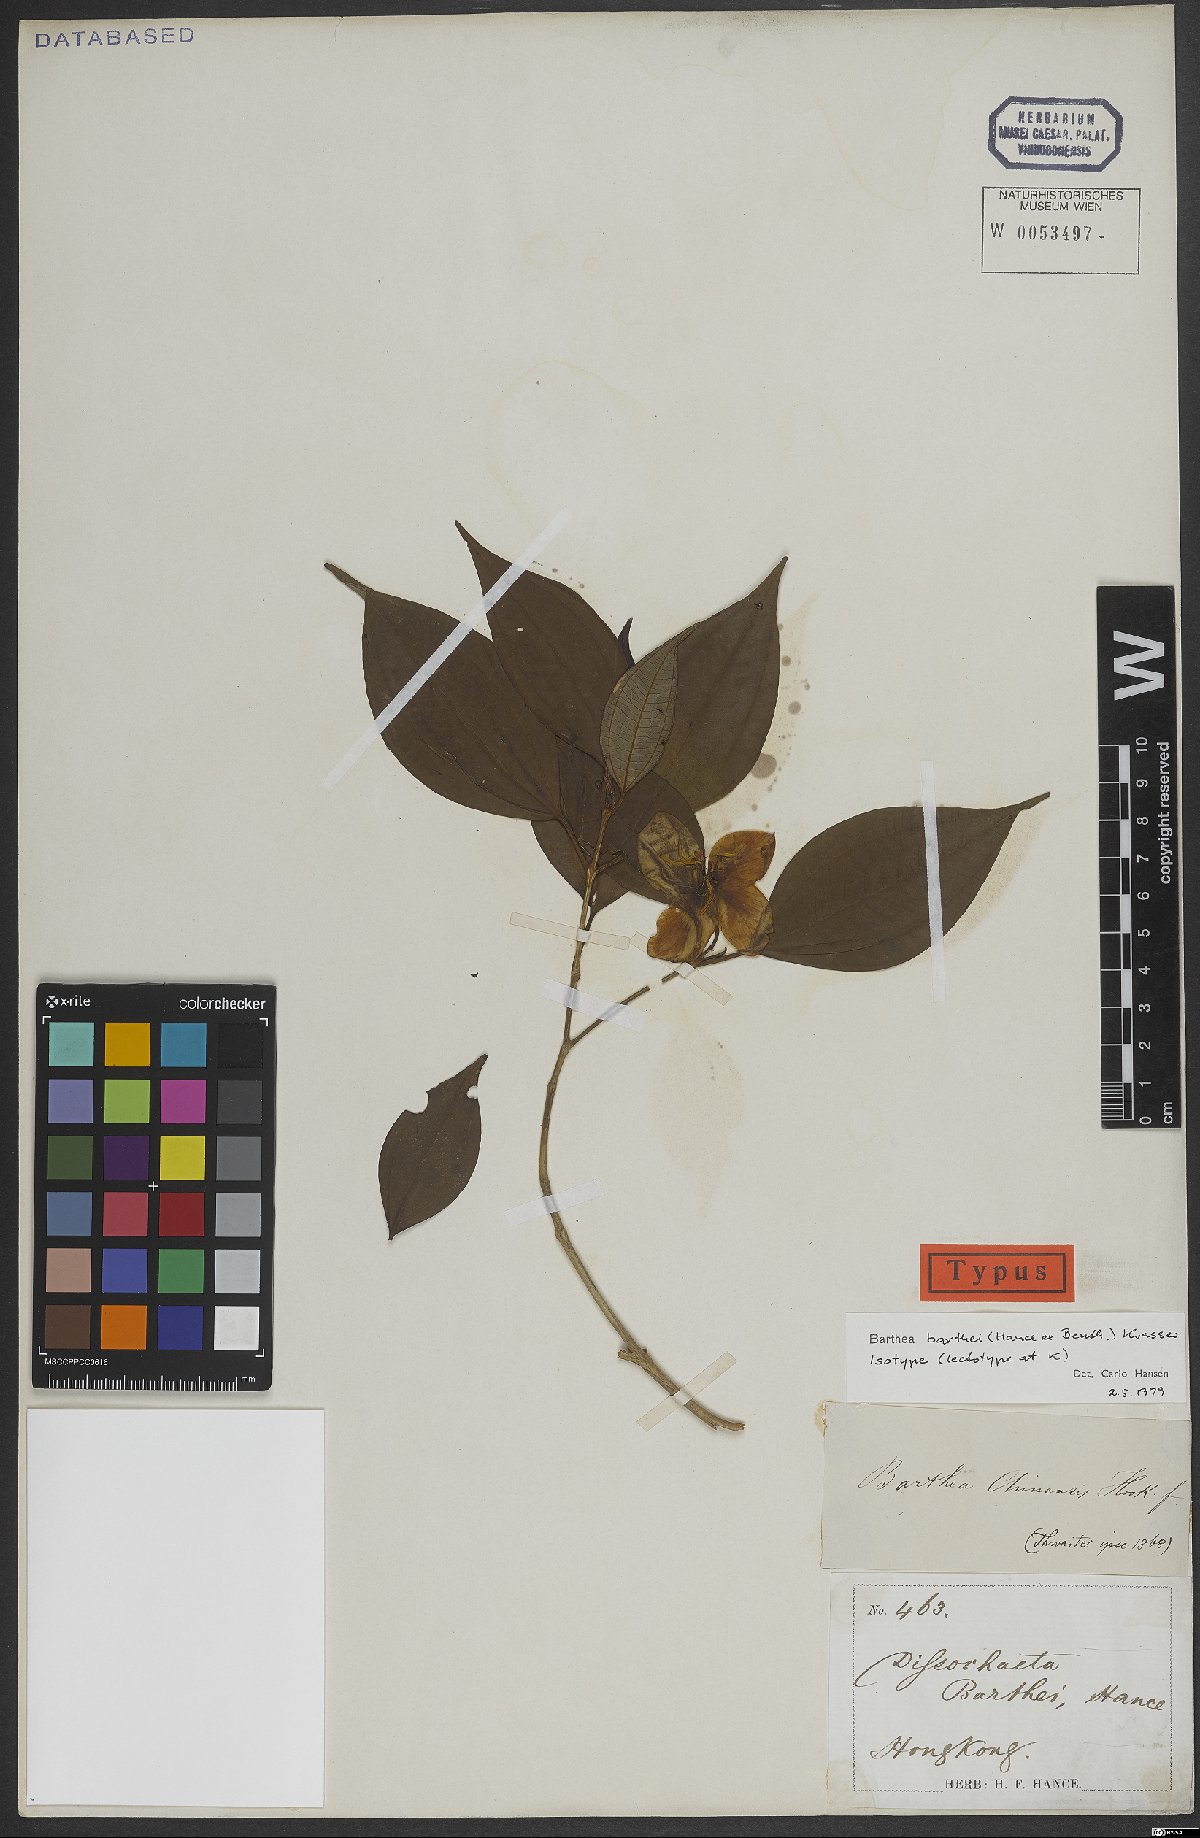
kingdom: Plantae
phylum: Tracheophyta
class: Magnoliopsida
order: Myrtales
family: Melastomataceae
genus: Barthea
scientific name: Barthea barthei
